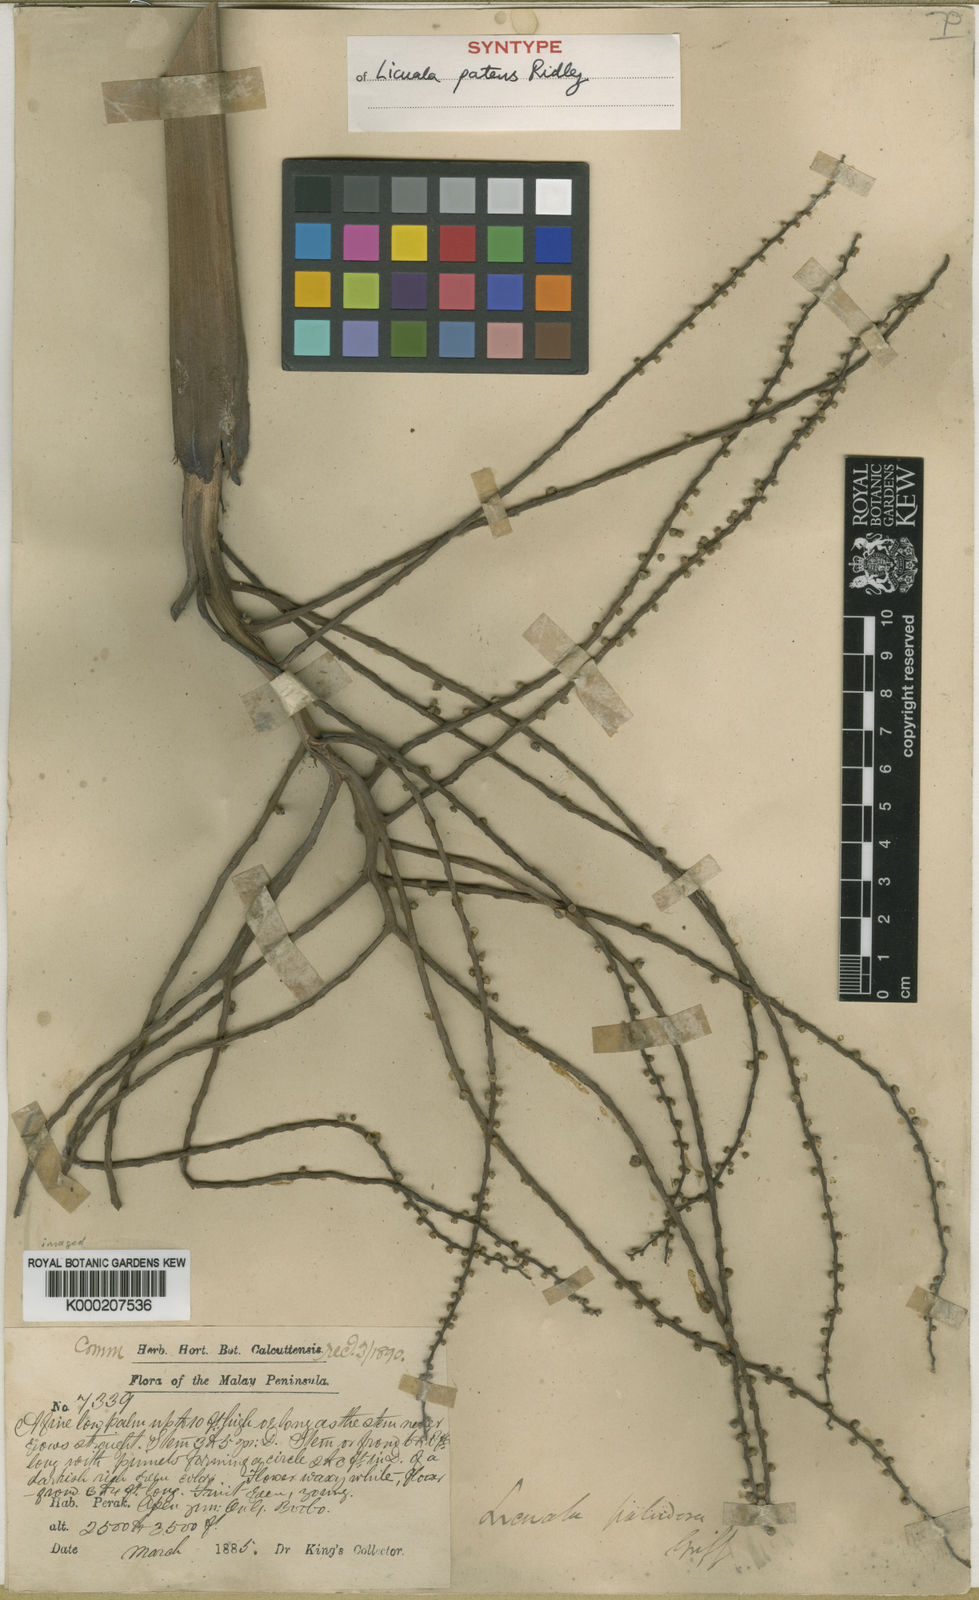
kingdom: Plantae
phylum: Tracheophyta
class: Liliopsida
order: Arecales
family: Arecaceae
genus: Licuala
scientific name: Licuala patens
